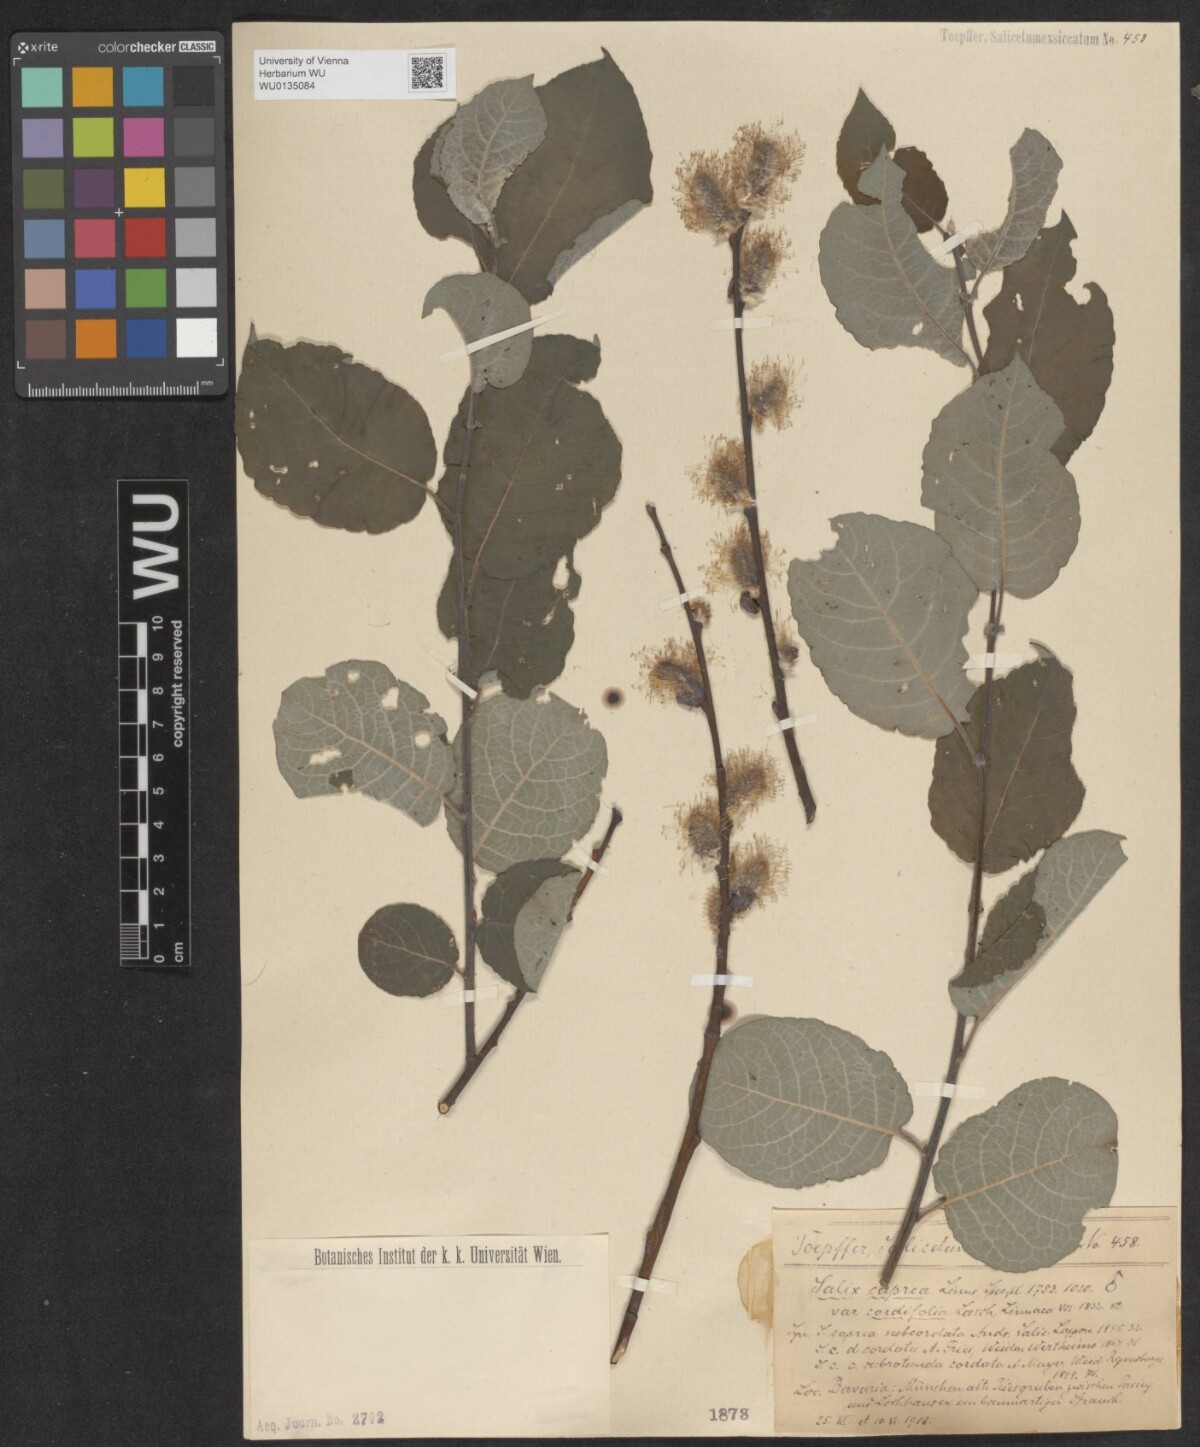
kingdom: Plantae
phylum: Tracheophyta
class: Magnoliopsida
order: Malpighiales
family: Salicaceae
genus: Salix
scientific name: Salix caprea
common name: Goat willow
